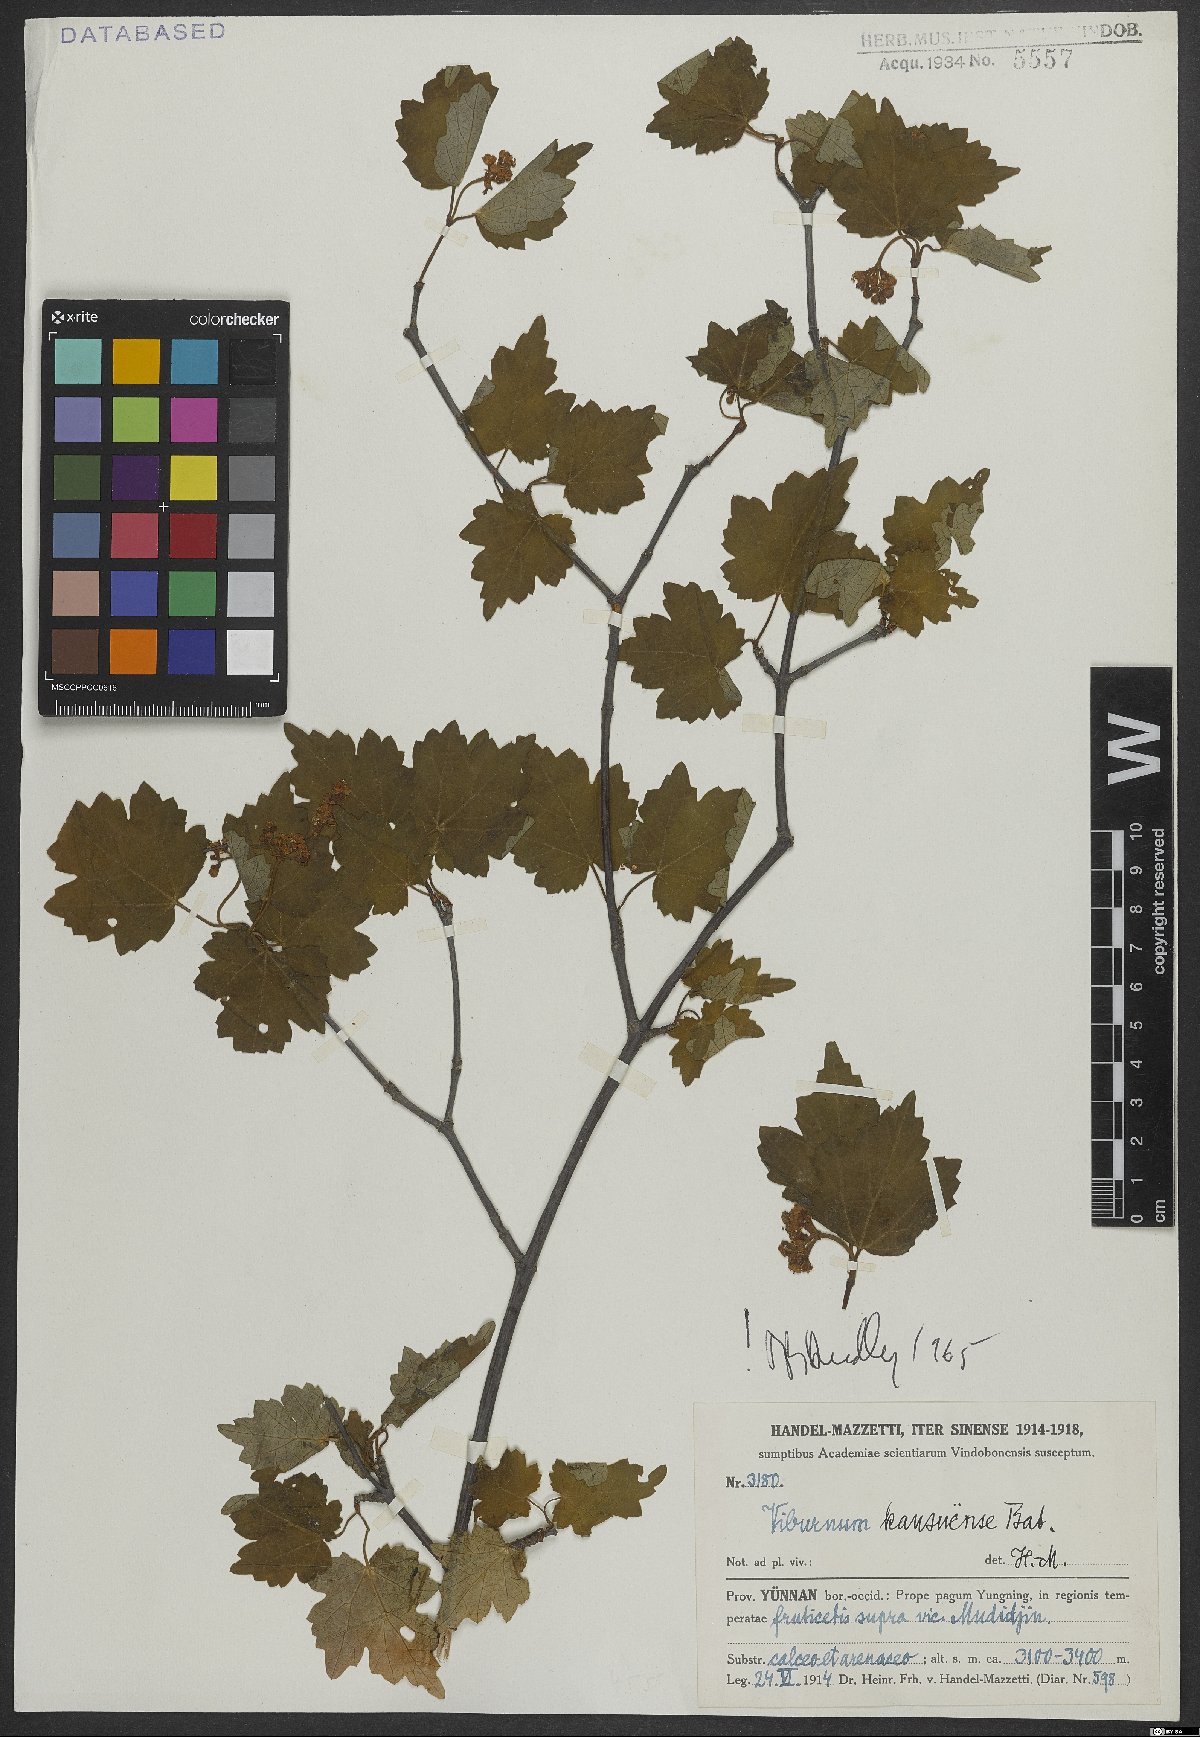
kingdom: Plantae
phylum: Tracheophyta
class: Magnoliopsida
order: Dipsacales
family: Viburnaceae
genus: Viburnum
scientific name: Viburnum kansuense
